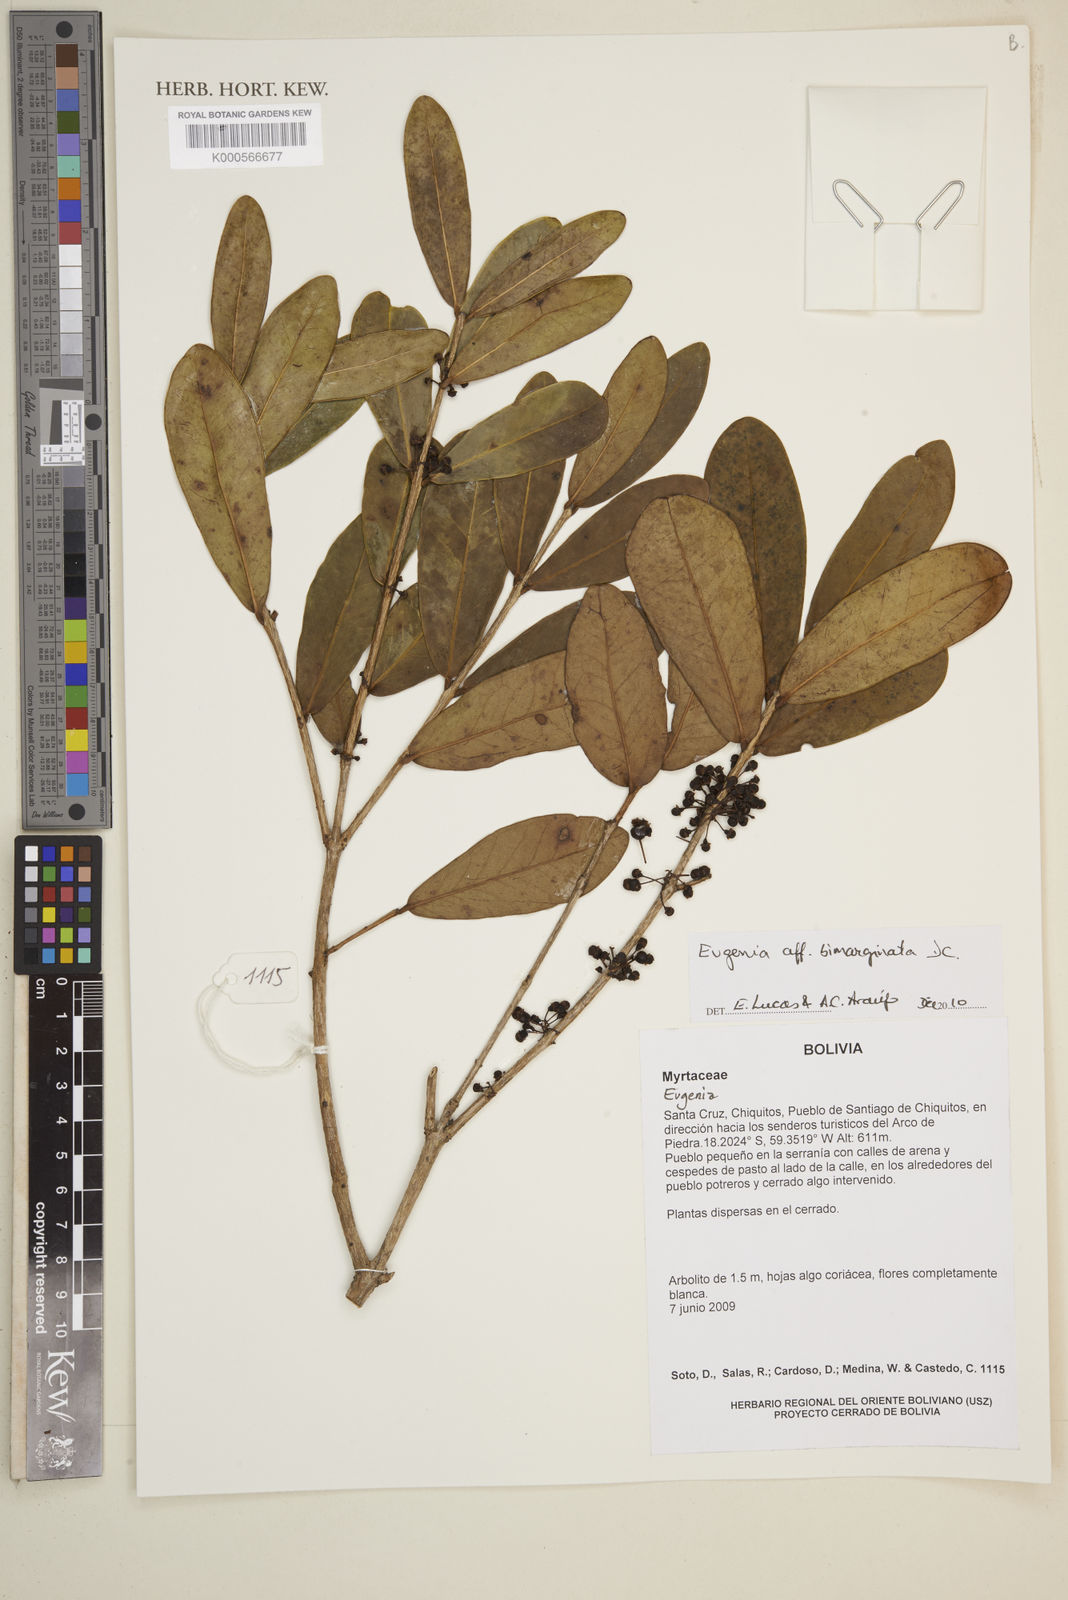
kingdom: Plantae
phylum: Tracheophyta
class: Magnoliopsida
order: Myrtales
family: Myrtaceae
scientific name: Myrtaceae
